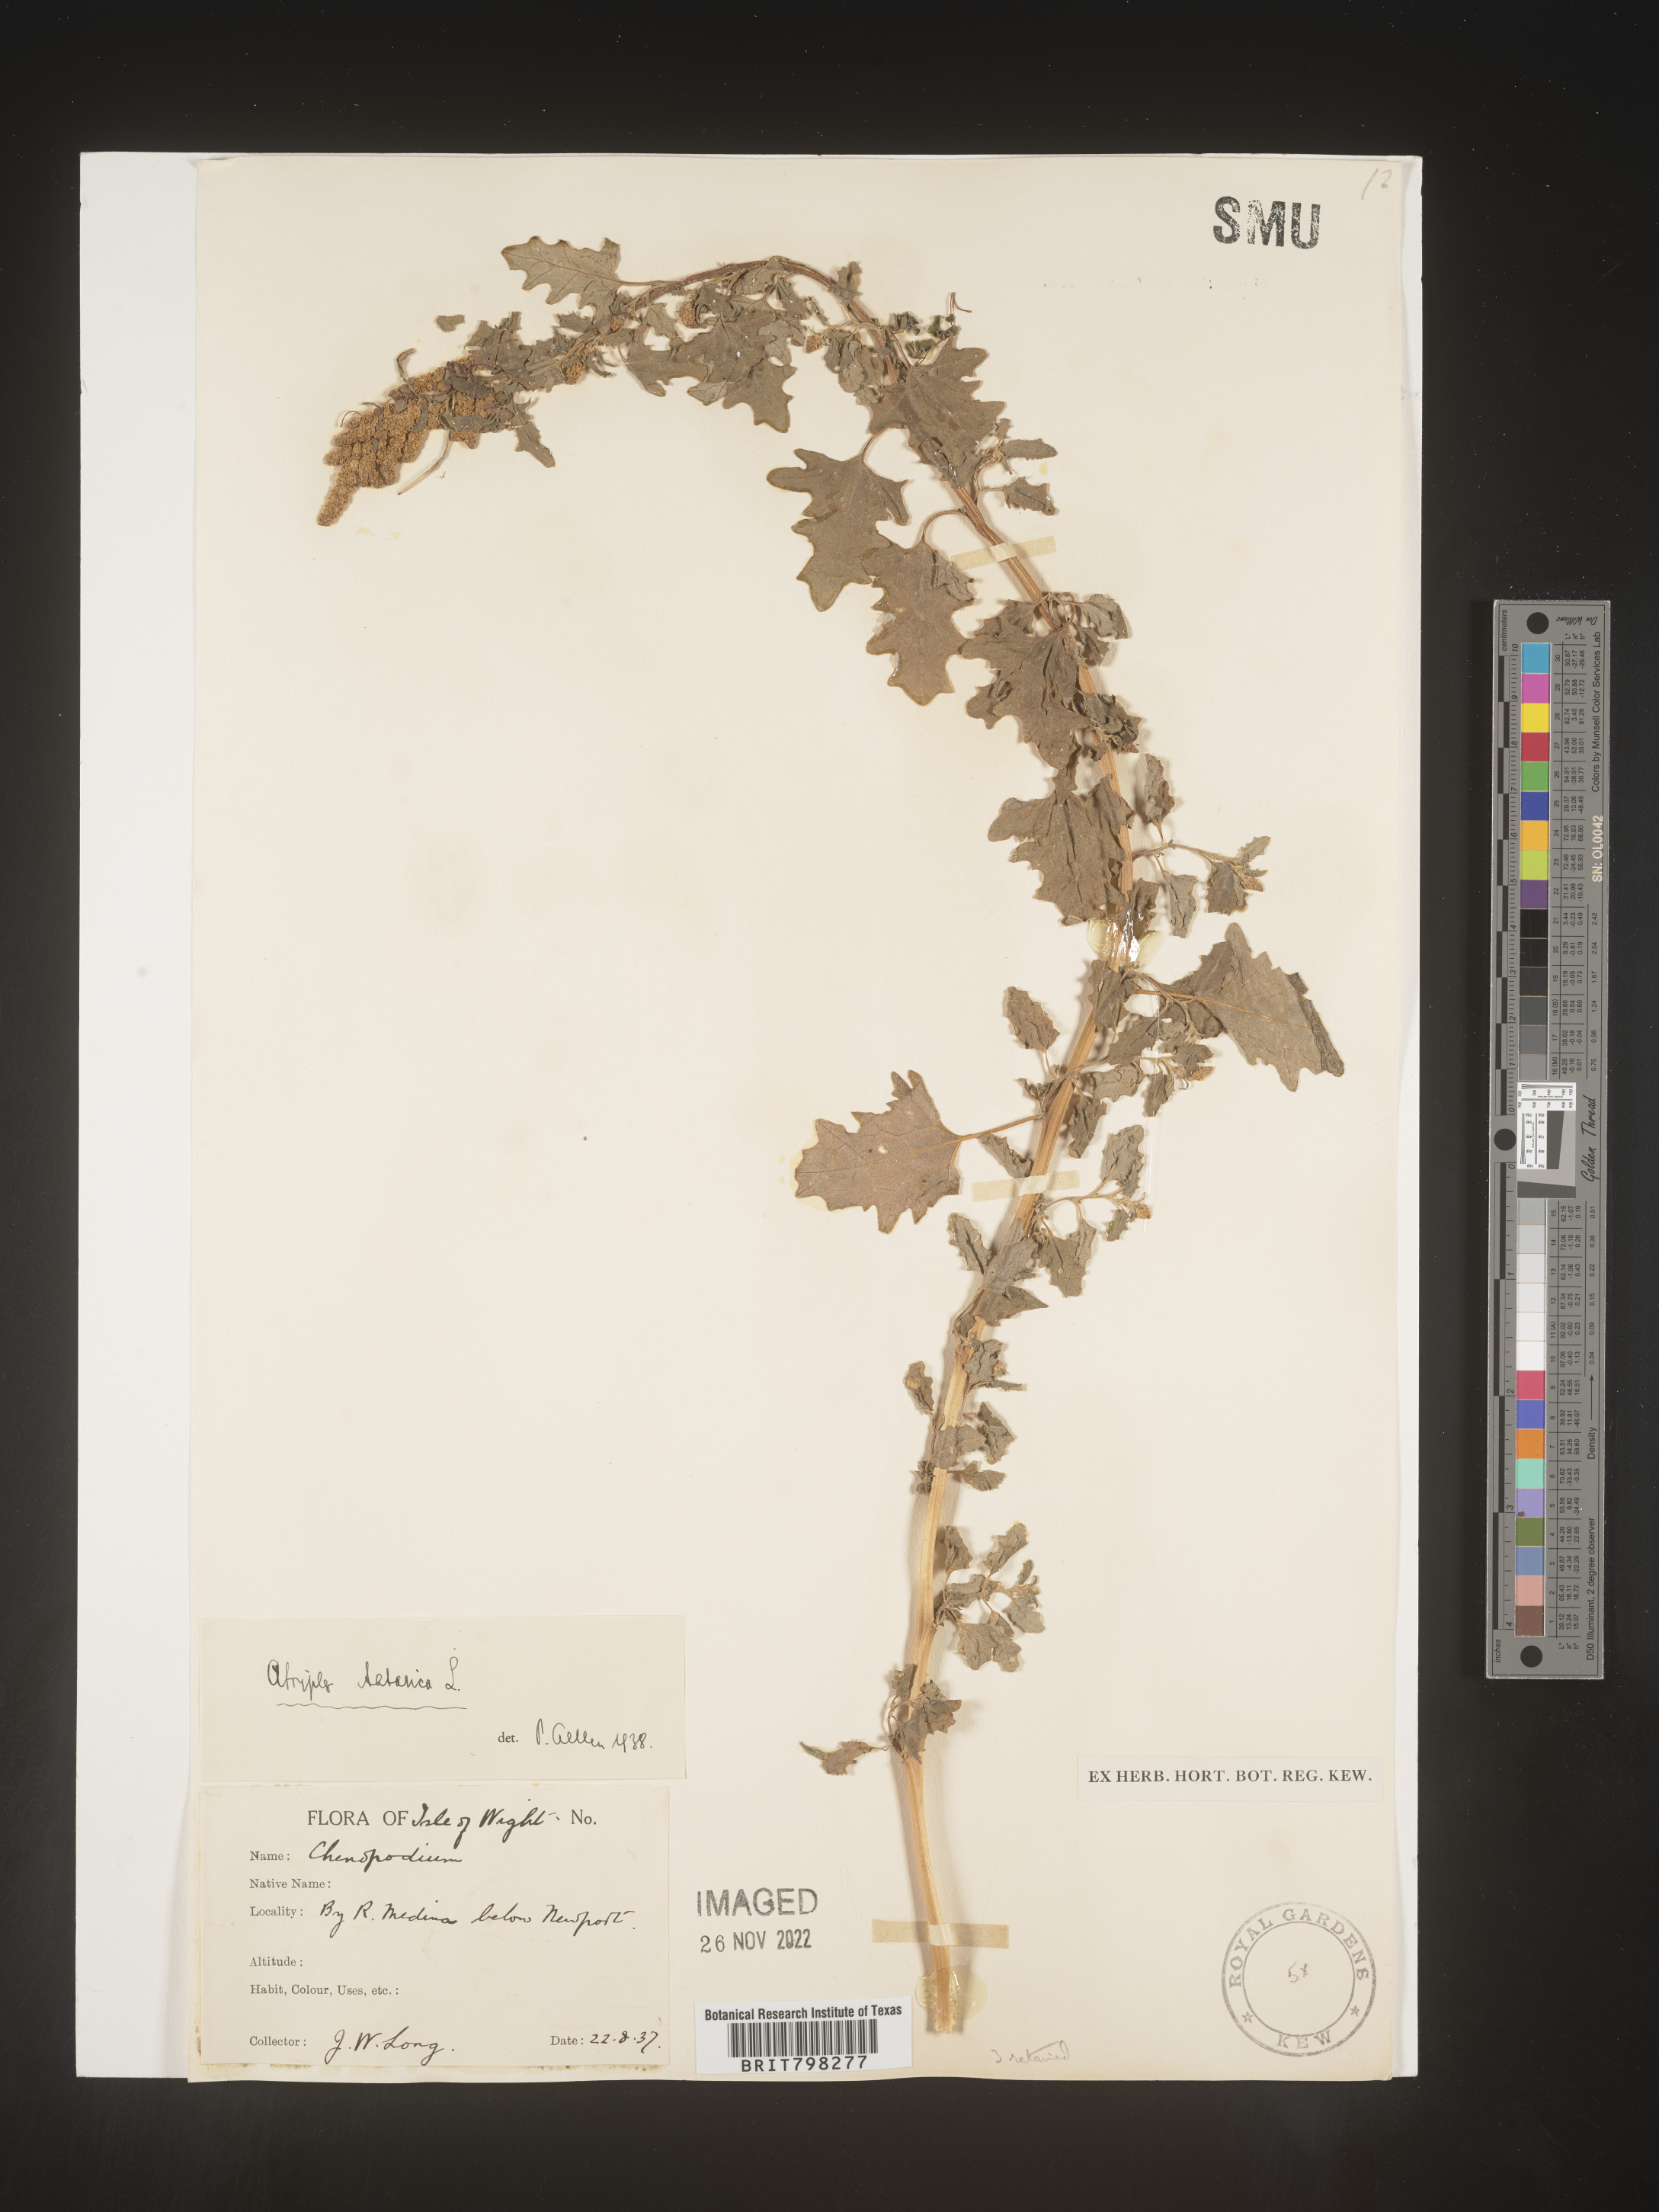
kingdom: Plantae
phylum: Tracheophyta
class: Magnoliopsida
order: Caryophyllales
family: Amaranthaceae
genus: Atriplex
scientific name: Atriplex
